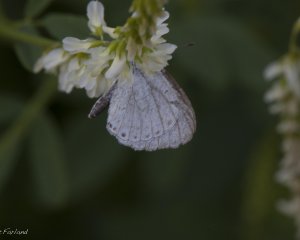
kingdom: Animalia
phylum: Arthropoda
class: Insecta
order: Lepidoptera
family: Lycaenidae
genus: Cyaniris
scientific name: Cyaniris neglecta
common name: Summer Azure
